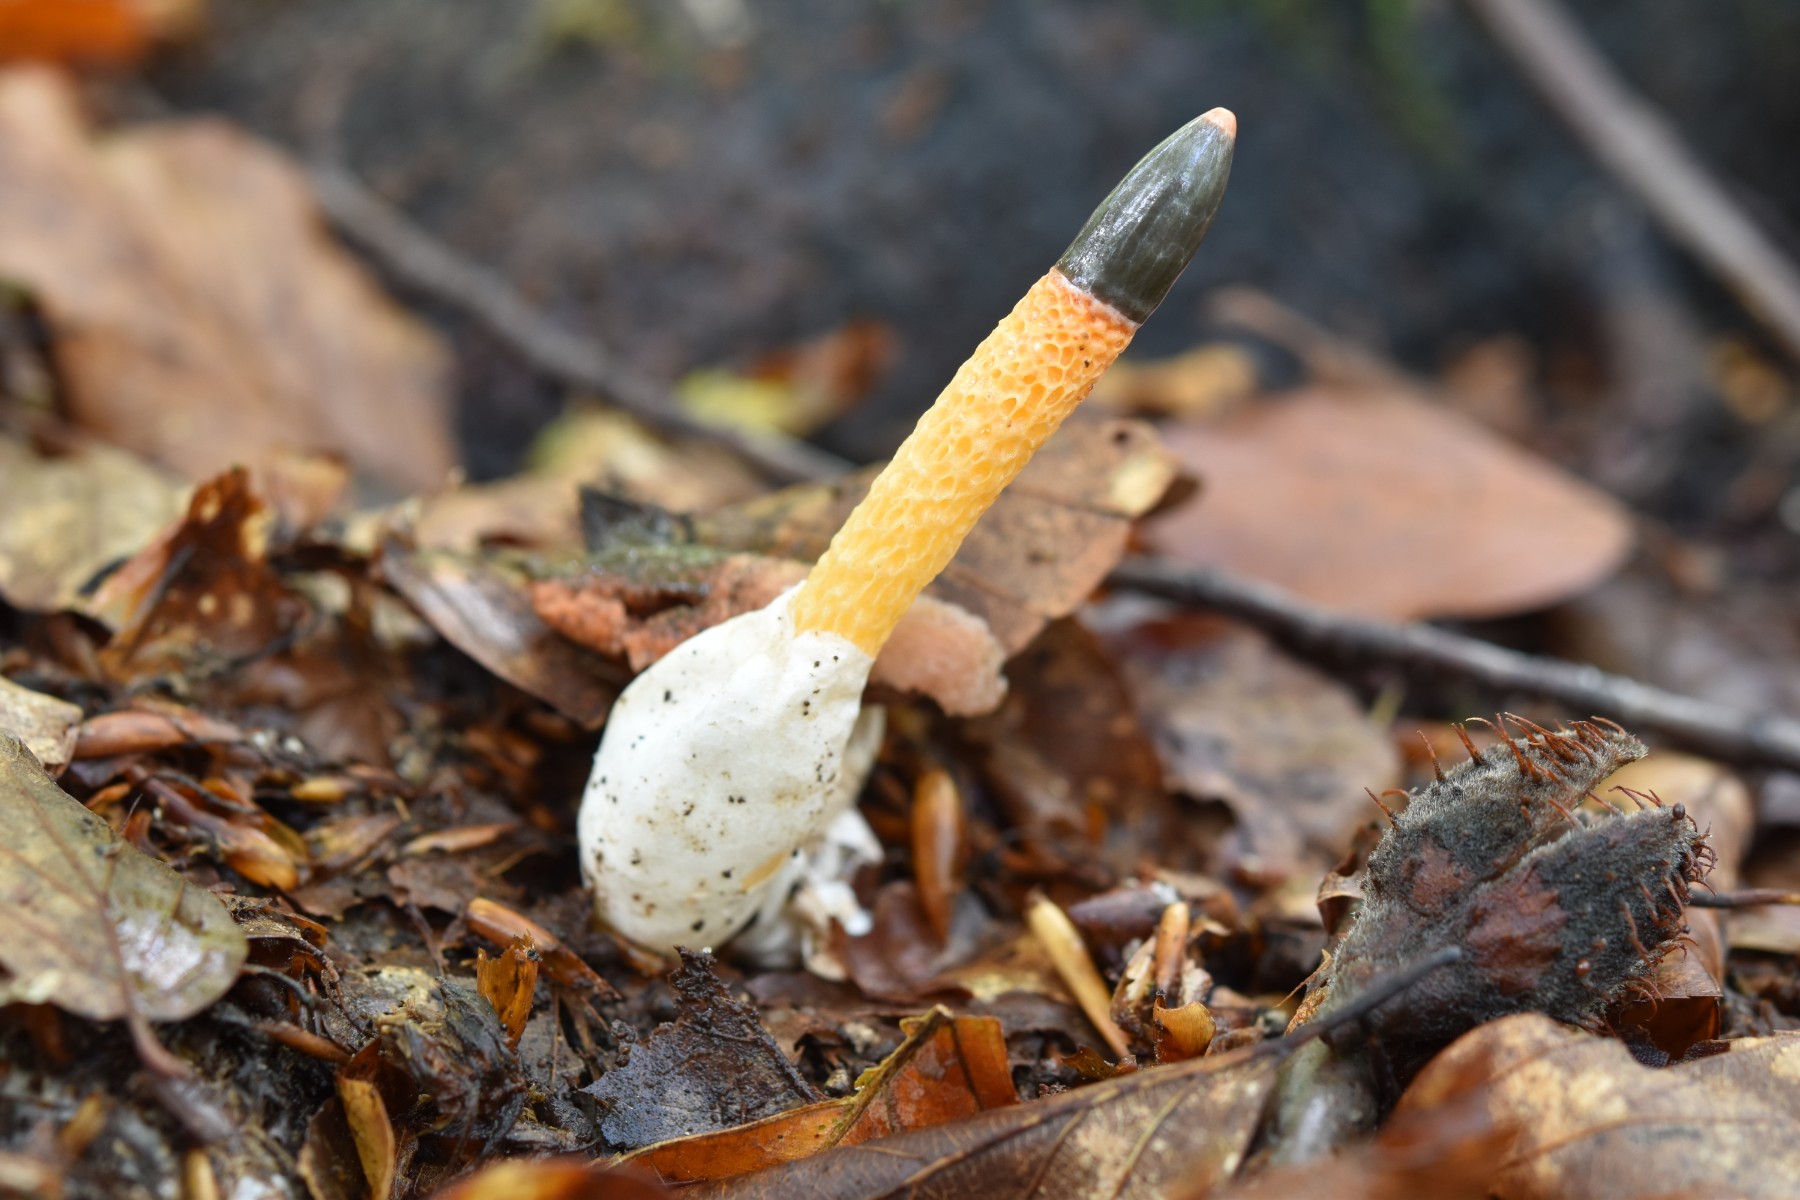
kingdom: Fungi
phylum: Basidiomycota
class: Agaricomycetes
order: Phallales
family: Phallaceae
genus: Mutinus
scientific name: Mutinus caninus
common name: hunde-stinksvamp
